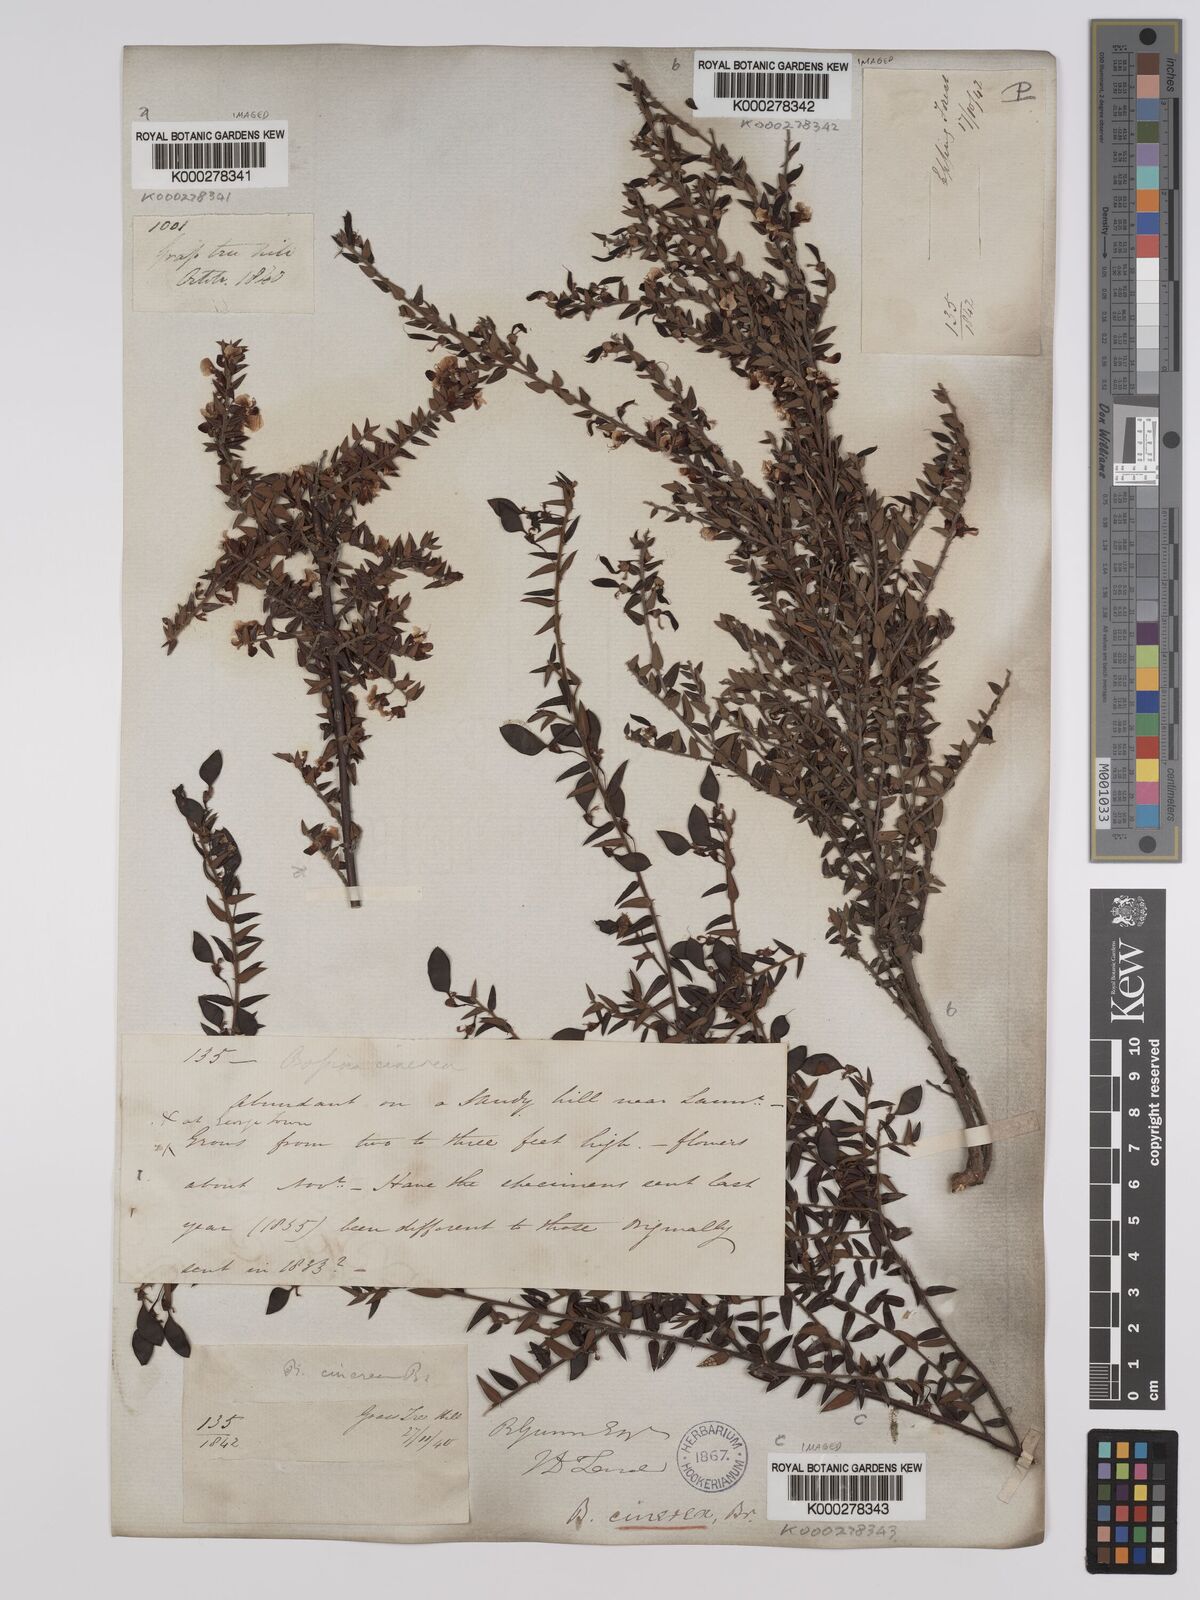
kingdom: Plantae
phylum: Tracheophyta
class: Magnoliopsida
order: Fabales
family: Fabaceae
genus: Bossiaea
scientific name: Bossiaea cinerea
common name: Showy bossiaea
